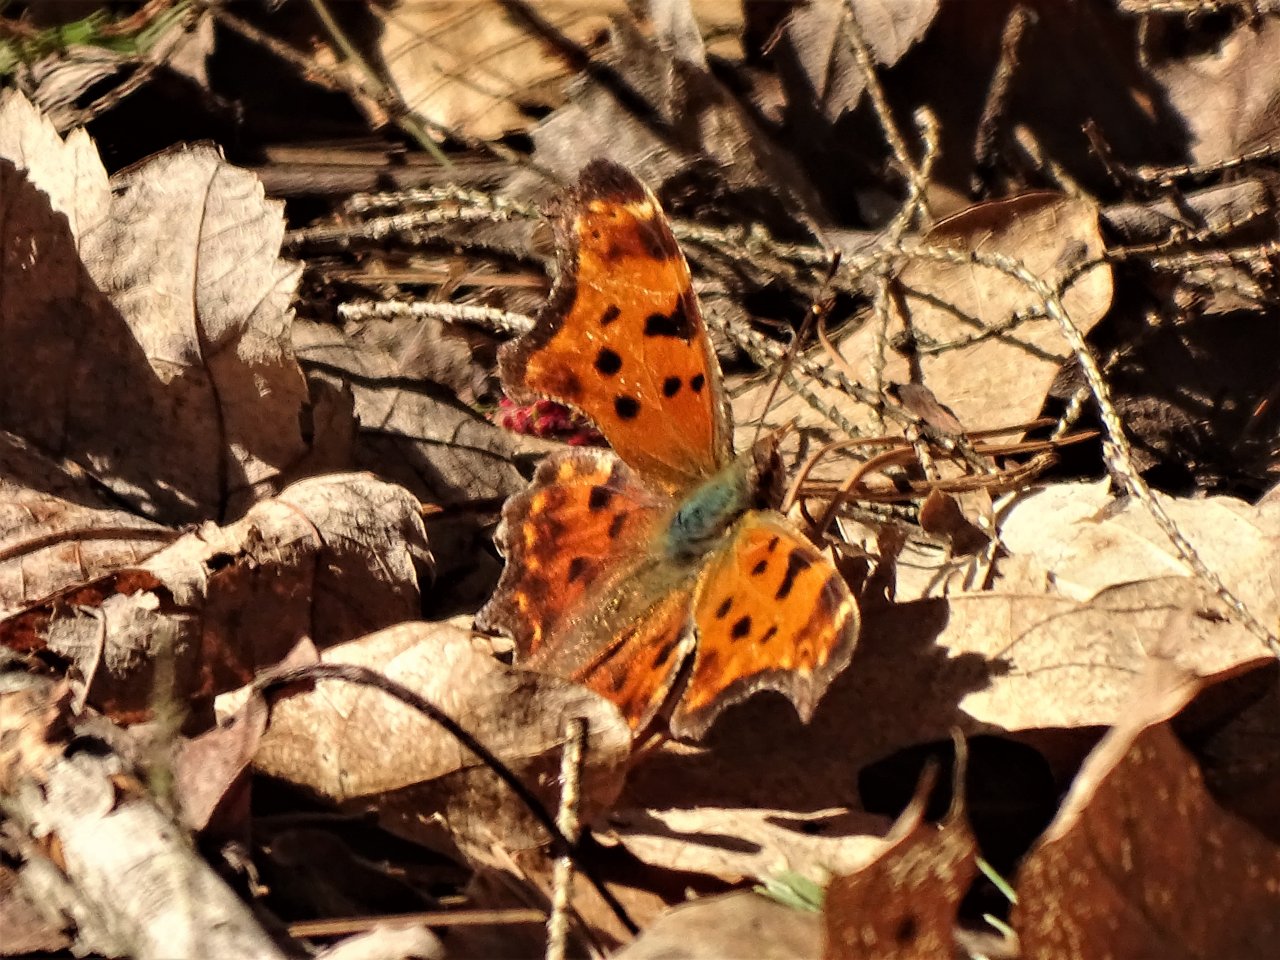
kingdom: Animalia
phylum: Arthropoda
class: Insecta
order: Lepidoptera
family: Nymphalidae
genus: Polygonia
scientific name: Polygonia comma
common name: Eastern Comma
